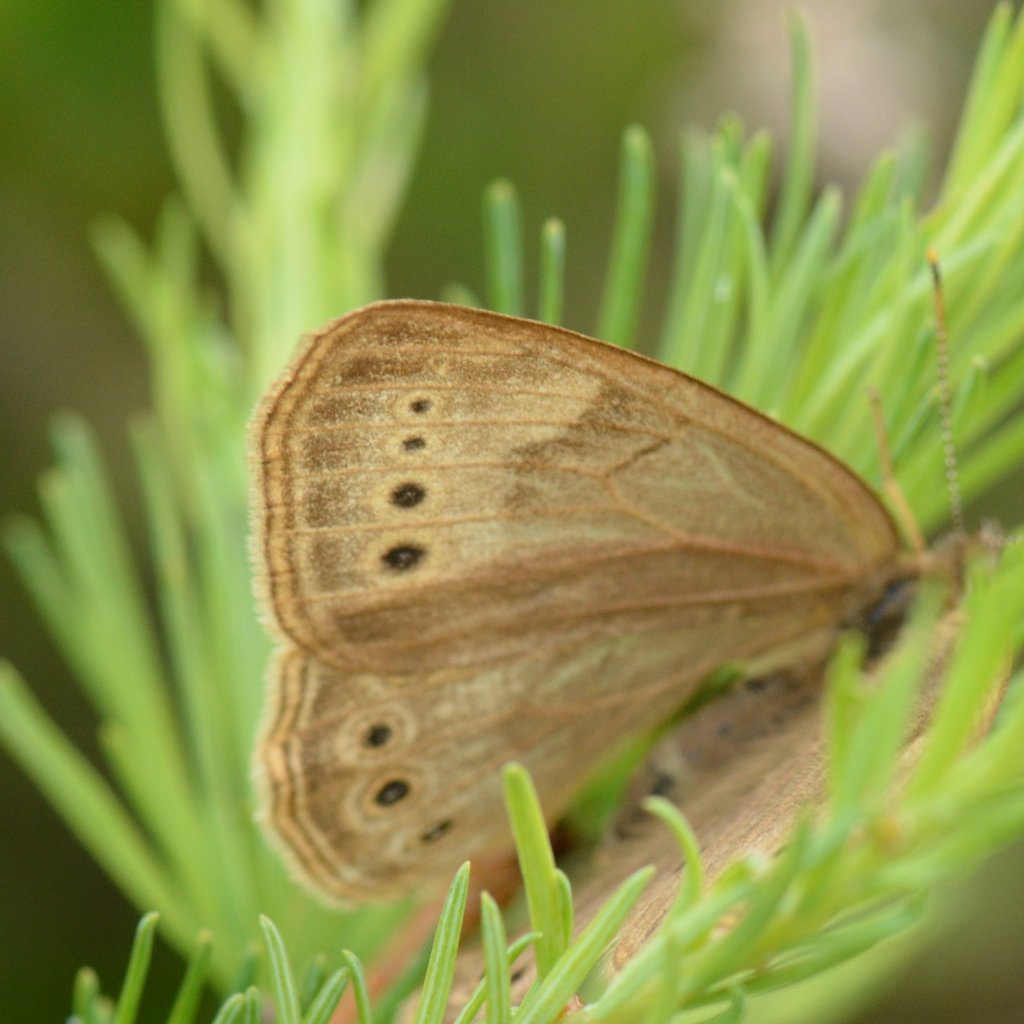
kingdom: Animalia
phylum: Arthropoda
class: Insecta
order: Lepidoptera
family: Nymphalidae
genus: Lethe
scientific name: Lethe eurydice
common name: Eyed Brown
